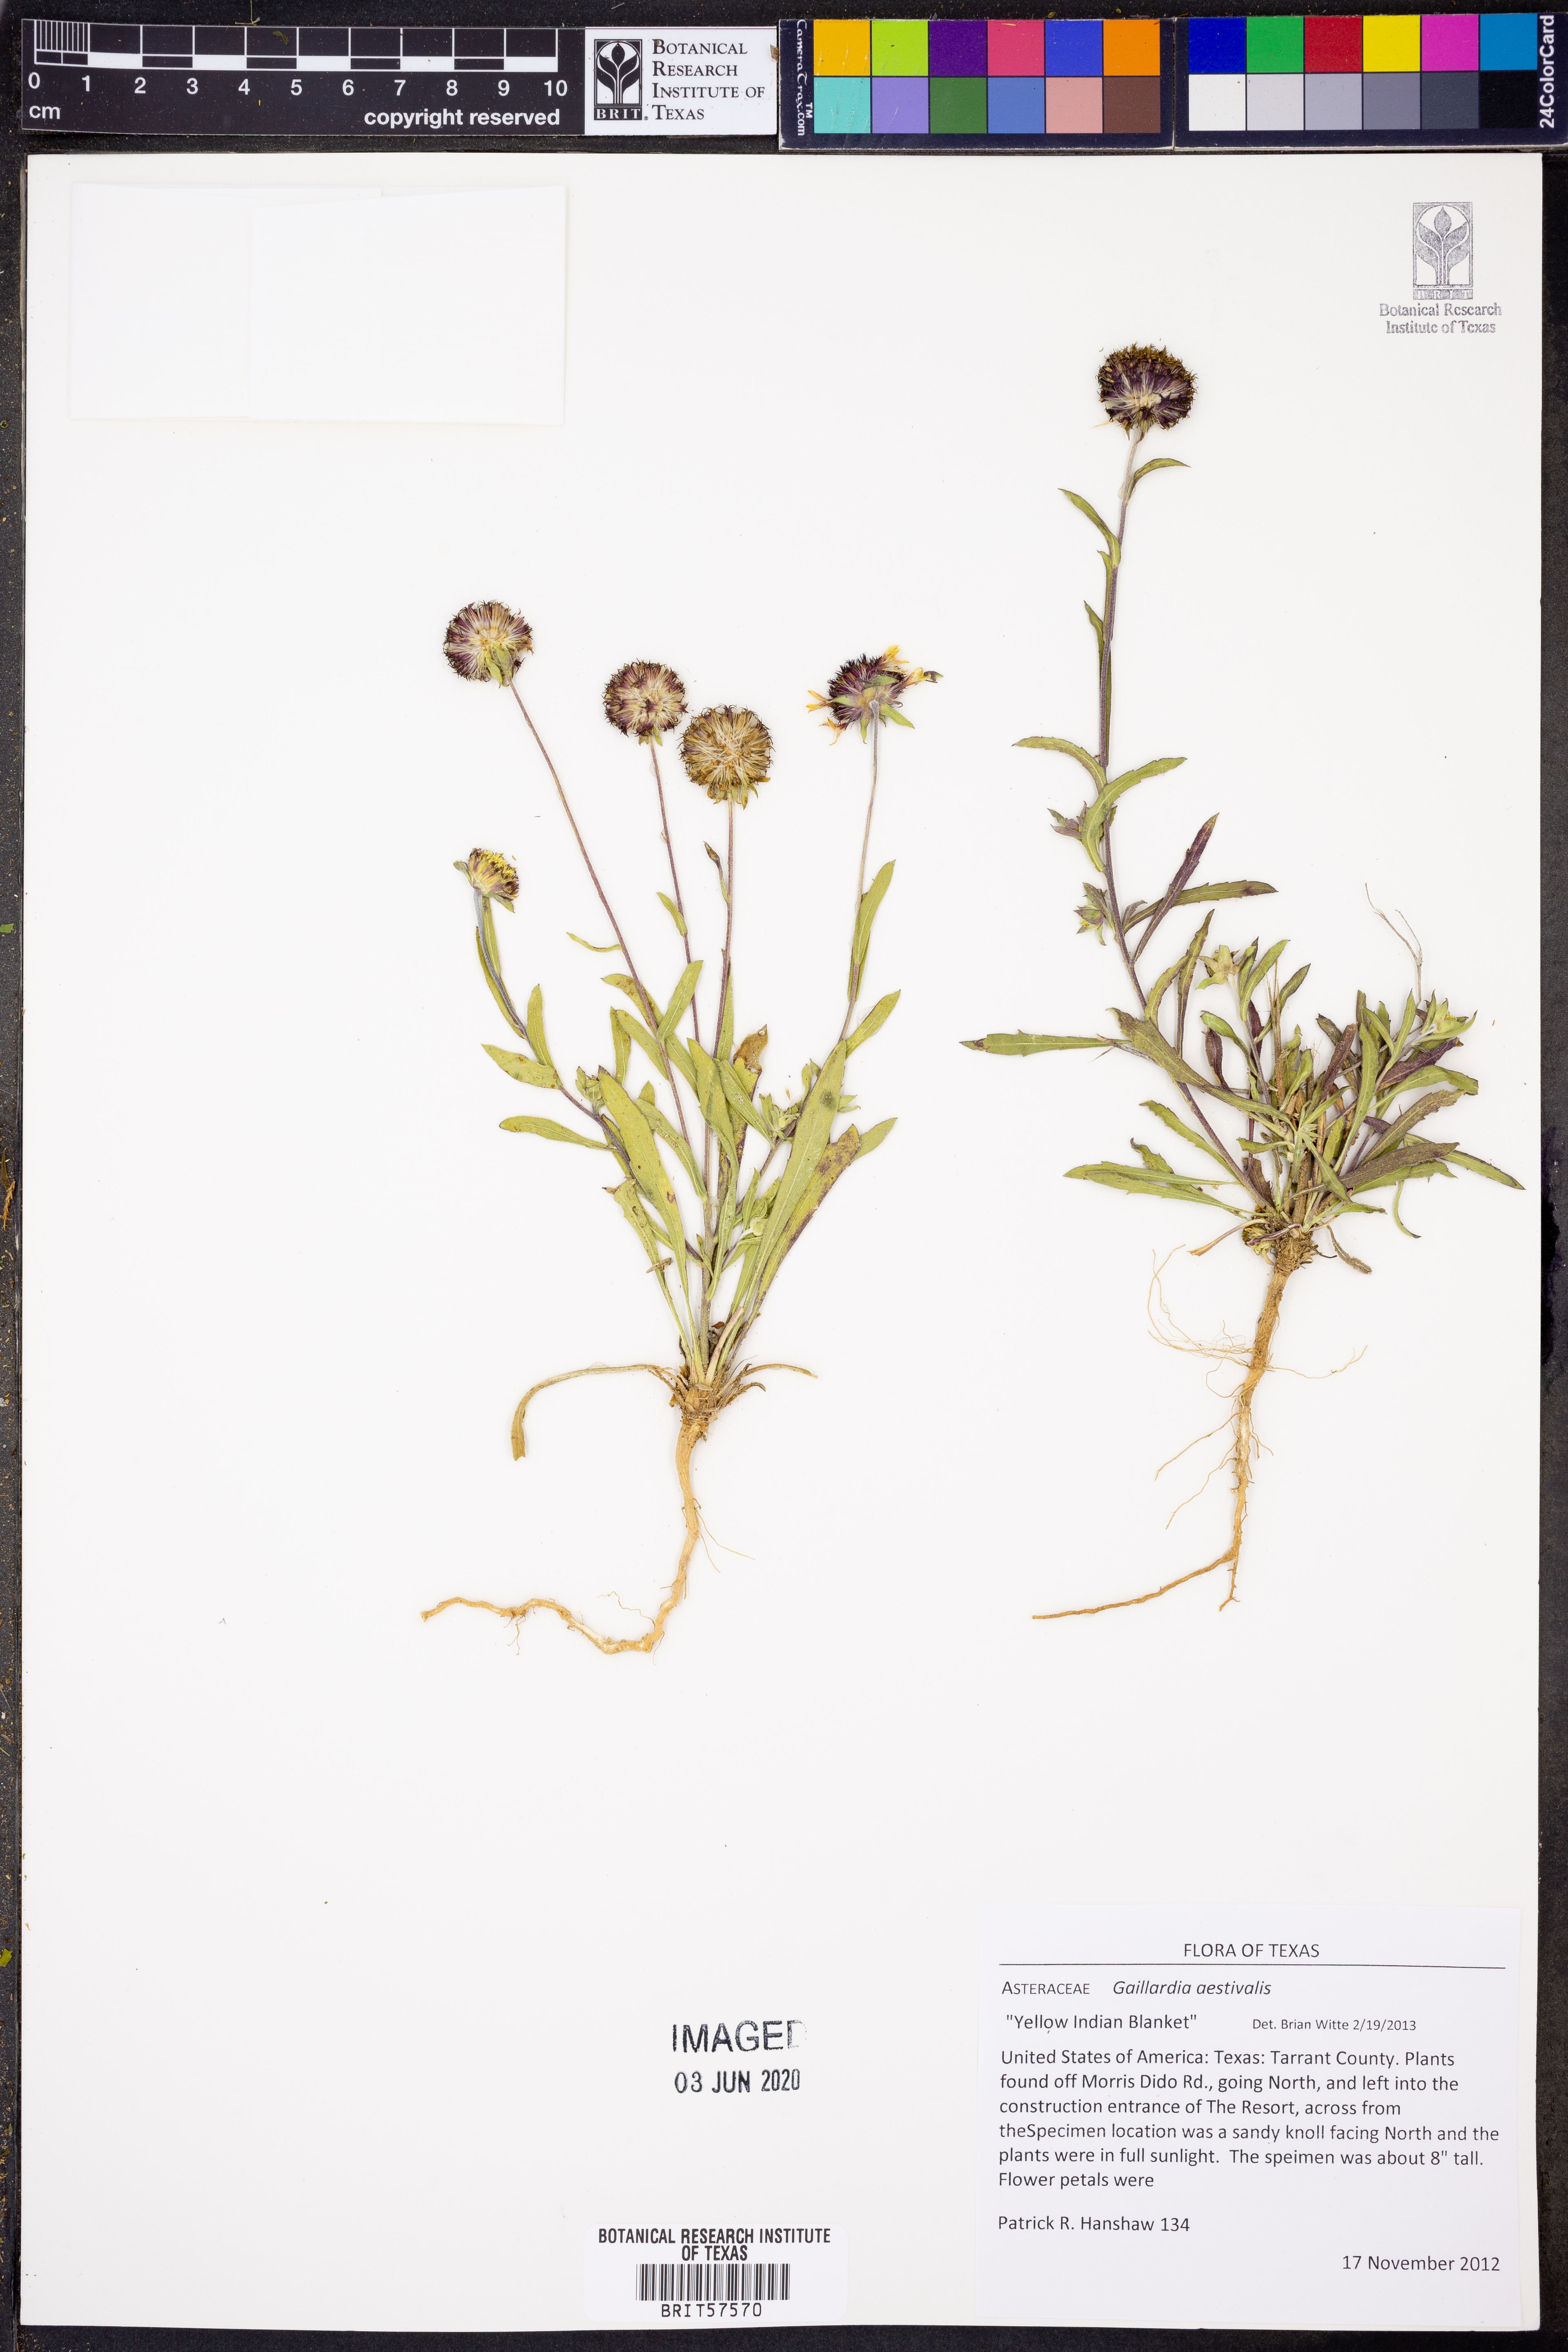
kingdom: Plantae
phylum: Tracheophyta
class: Magnoliopsida
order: Asterales
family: Asteraceae
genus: Gaillardia
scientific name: Gaillardia aestivalis
